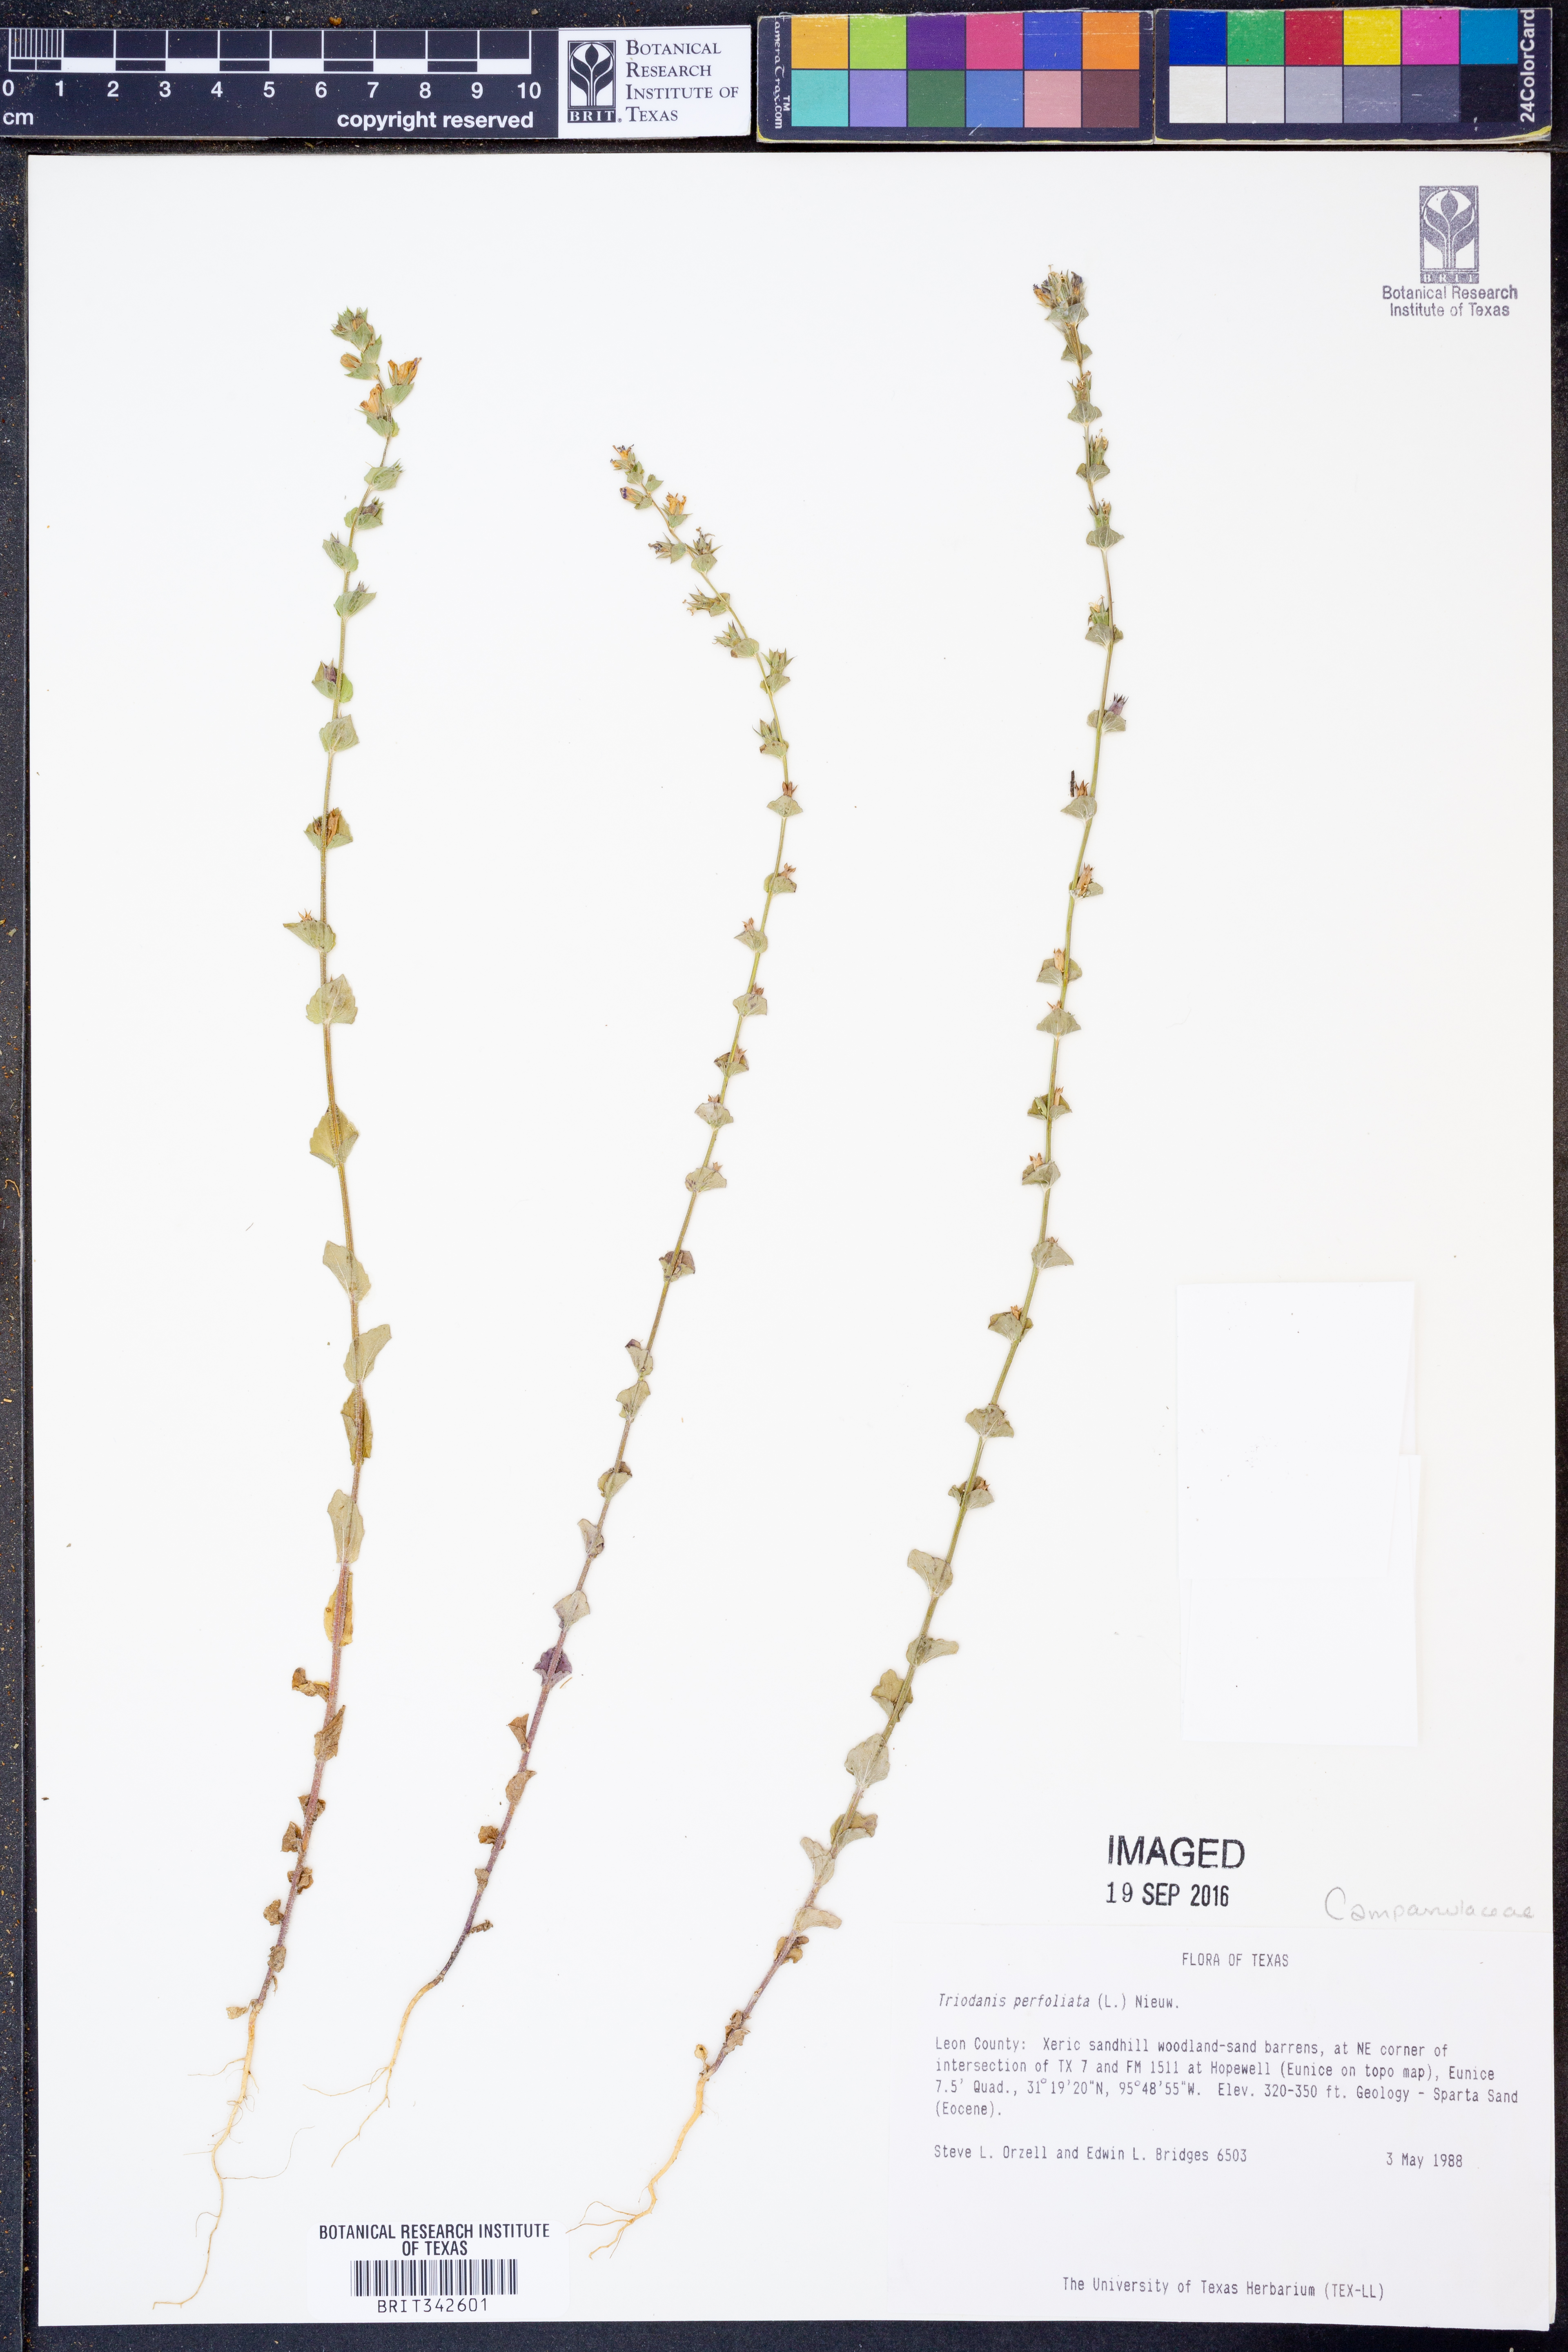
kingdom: Plantae
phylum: Tracheophyta
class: Magnoliopsida
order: Asterales
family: Campanulaceae
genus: Triodanis
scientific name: Triodanis perfoliata
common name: Clasping venus' looking-glass
